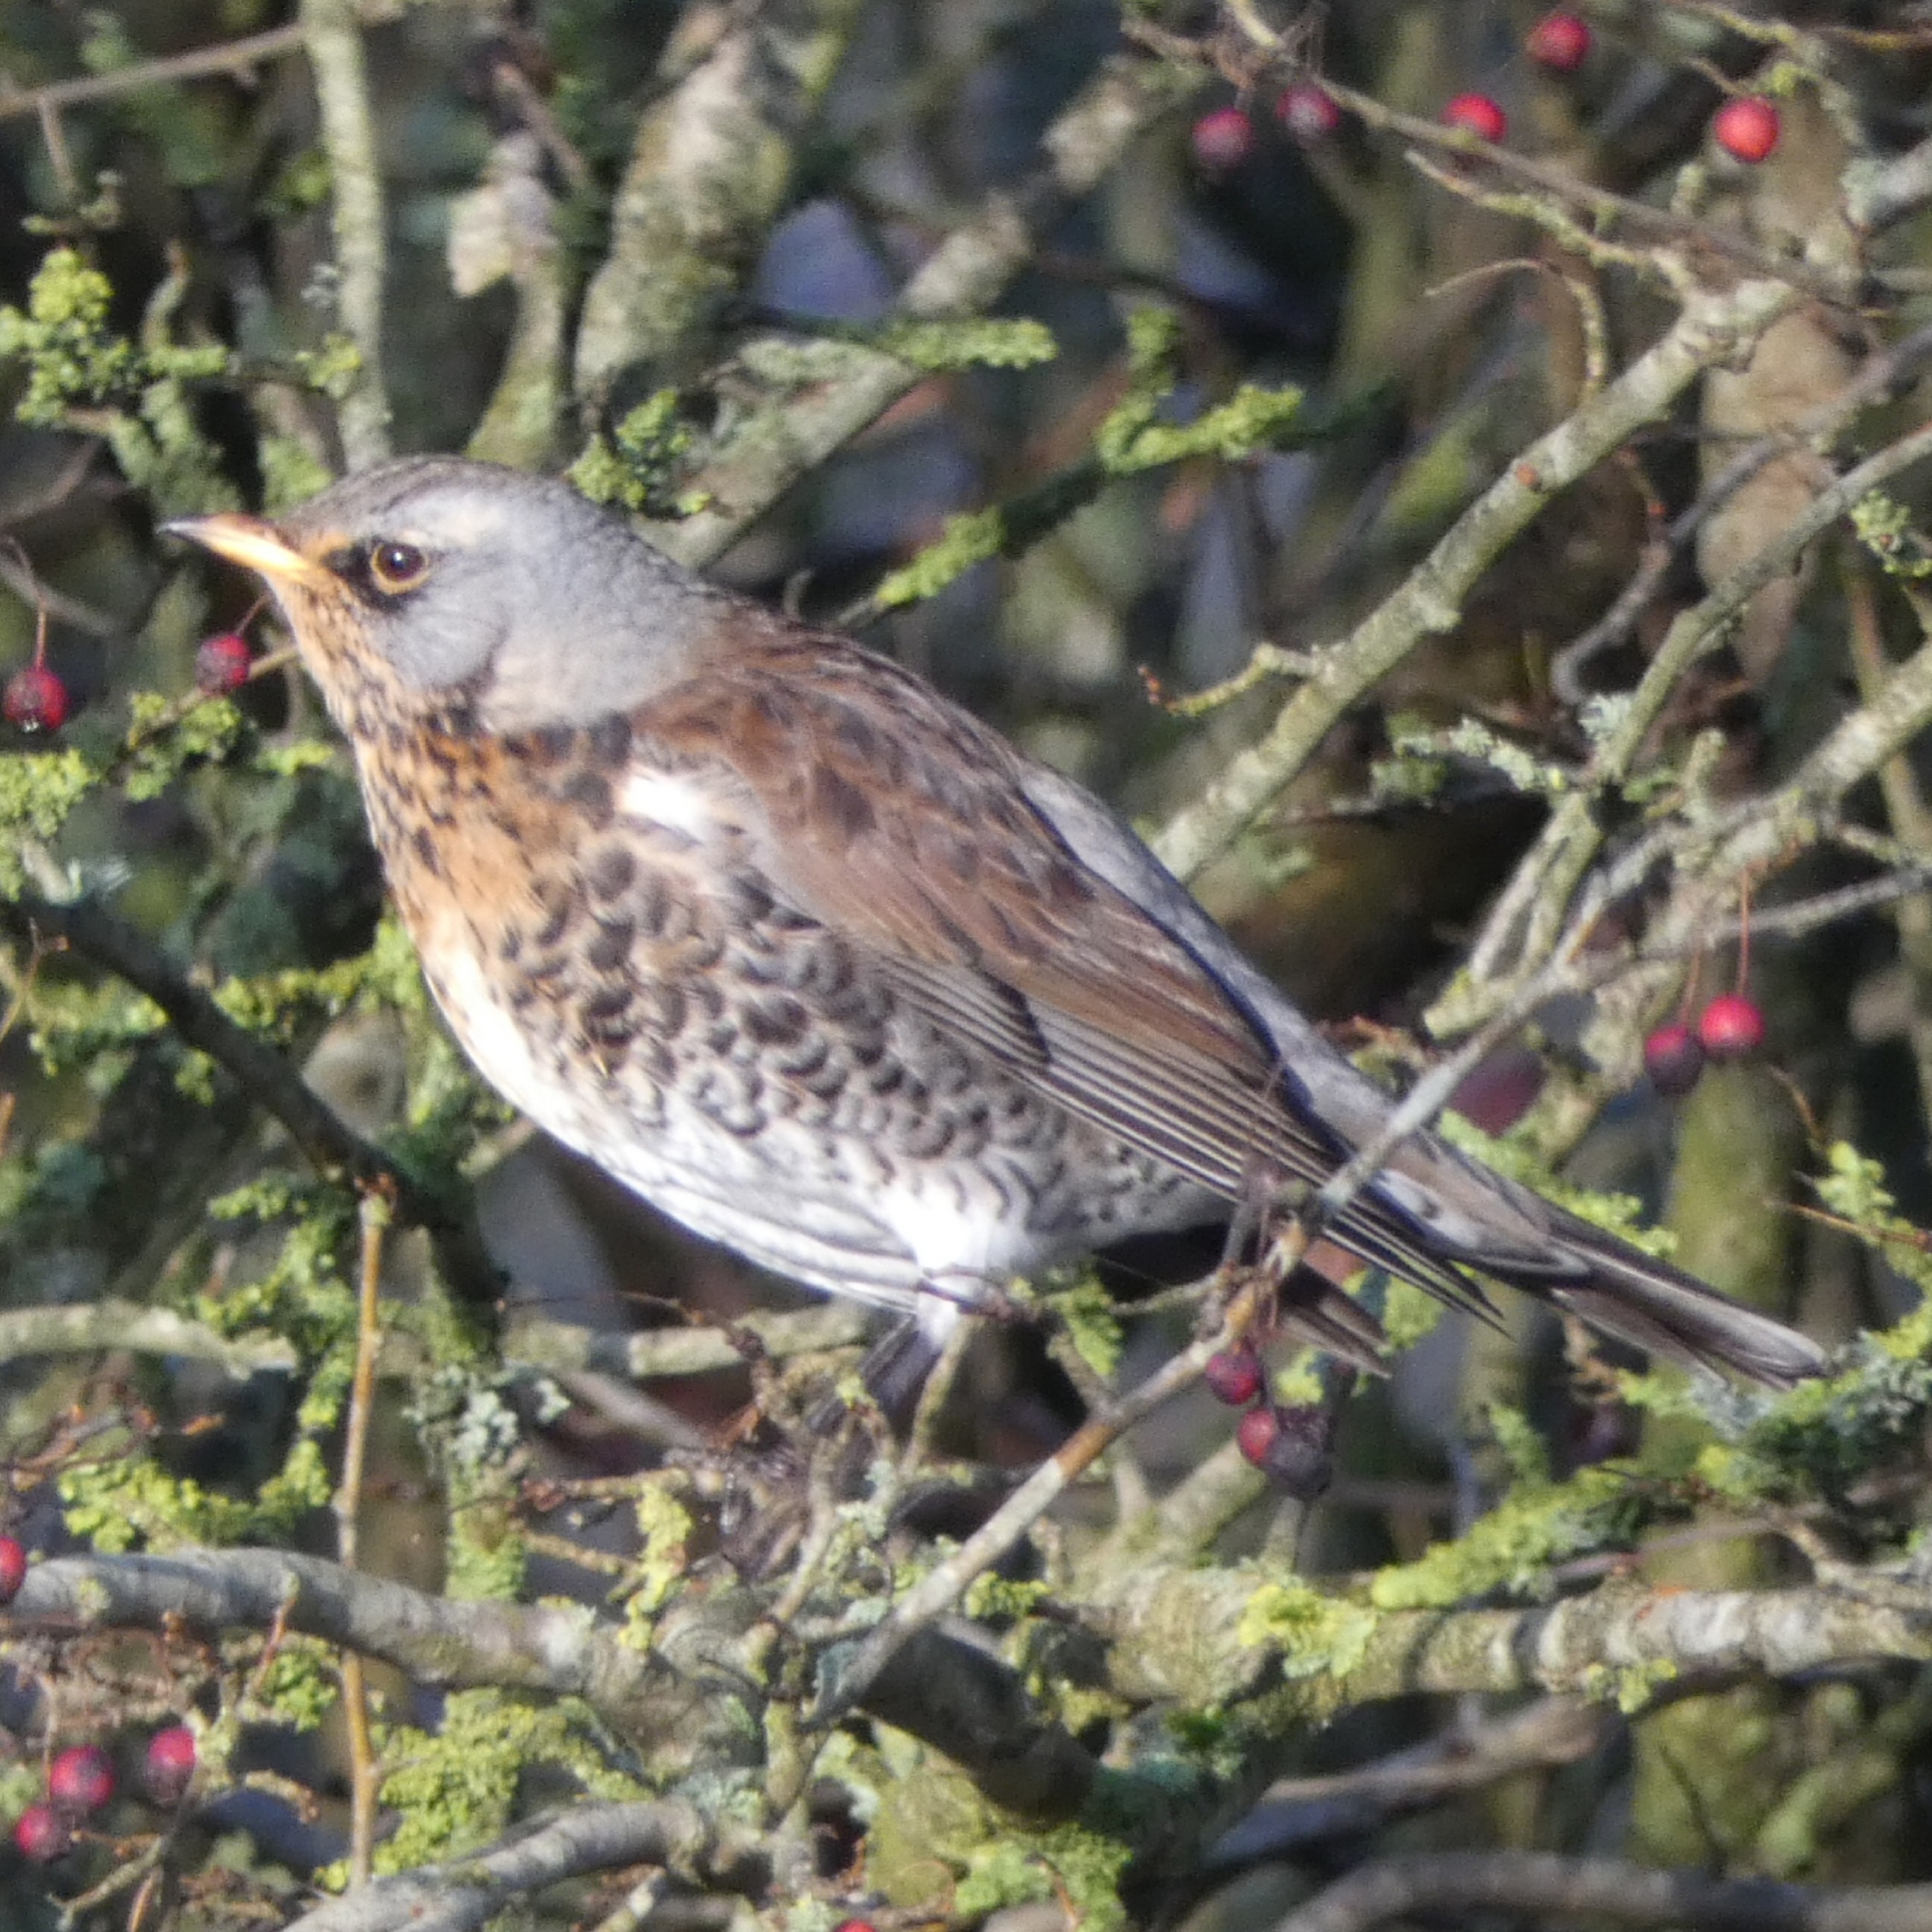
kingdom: Animalia
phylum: Chordata
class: Aves
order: Passeriformes
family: Turdidae
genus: Turdus
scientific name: Turdus pilaris
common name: Sjagger
